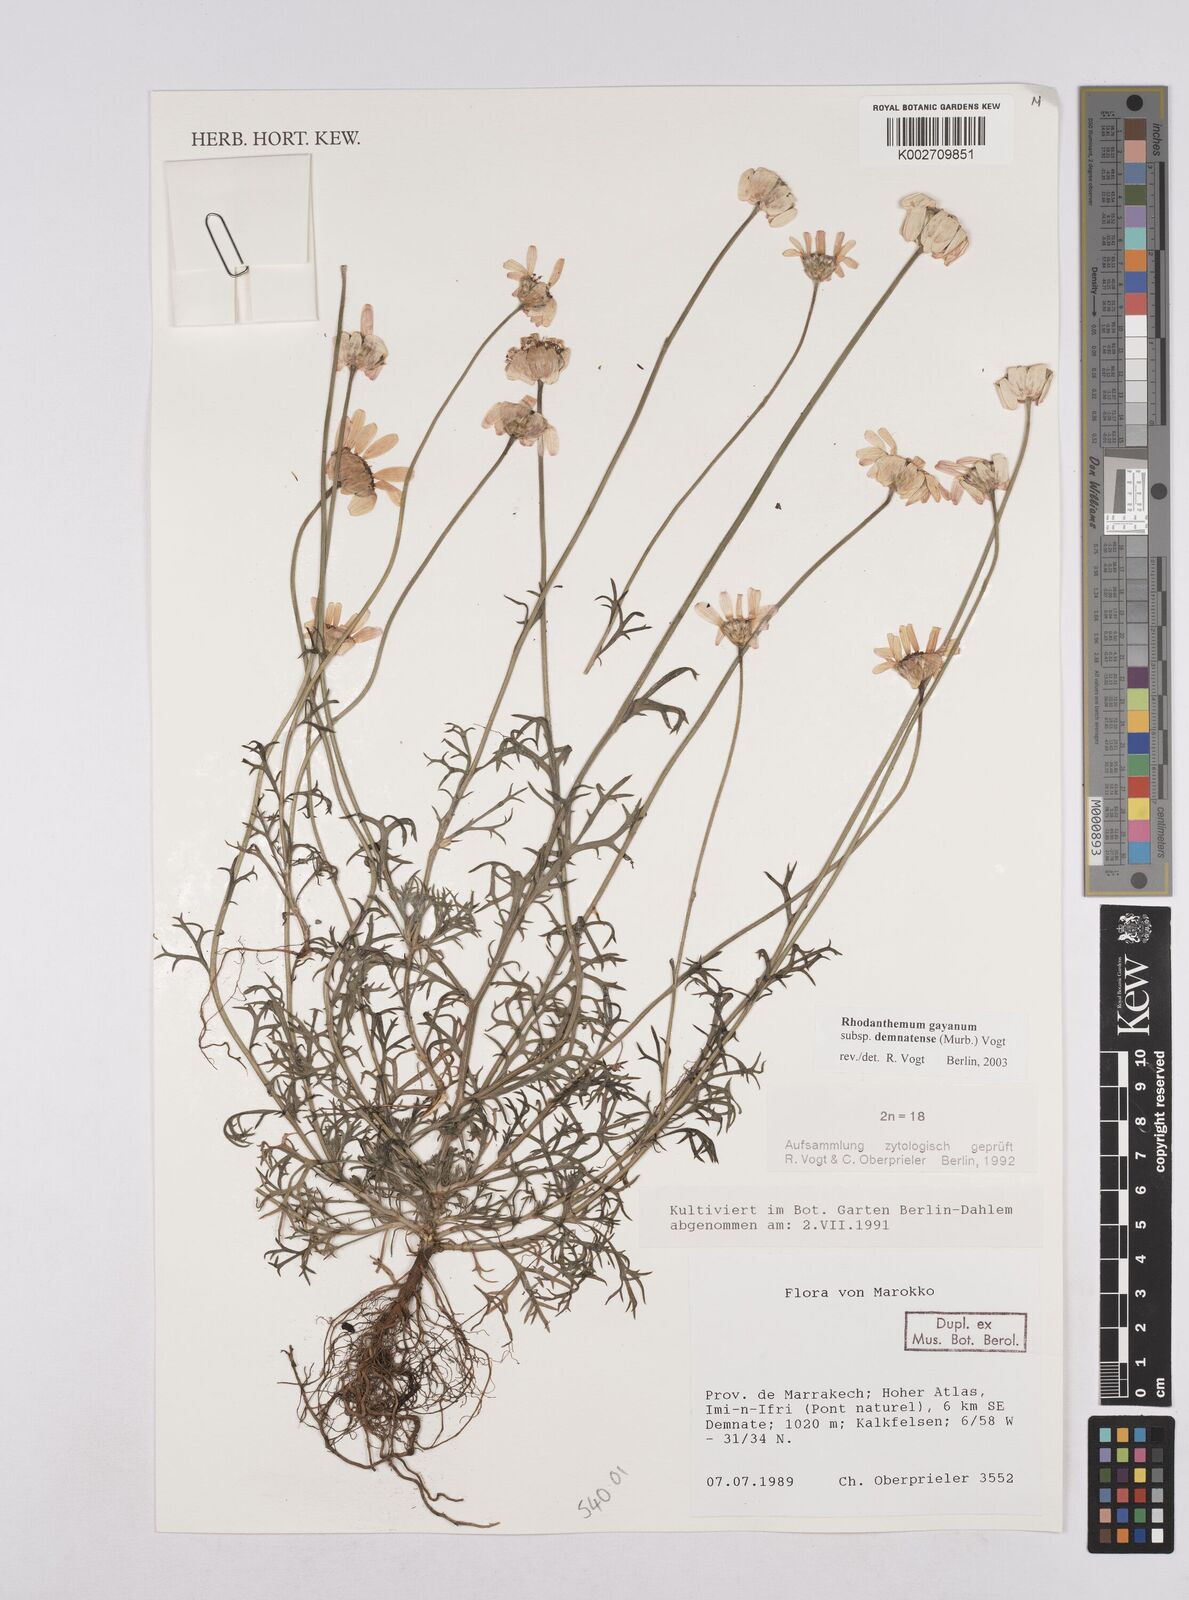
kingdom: Plantae
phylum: Tracheophyta
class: Magnoliopsida
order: Asterales
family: Asteraceae
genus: Rhodanthemum
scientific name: Rhodanthemum gayanum
